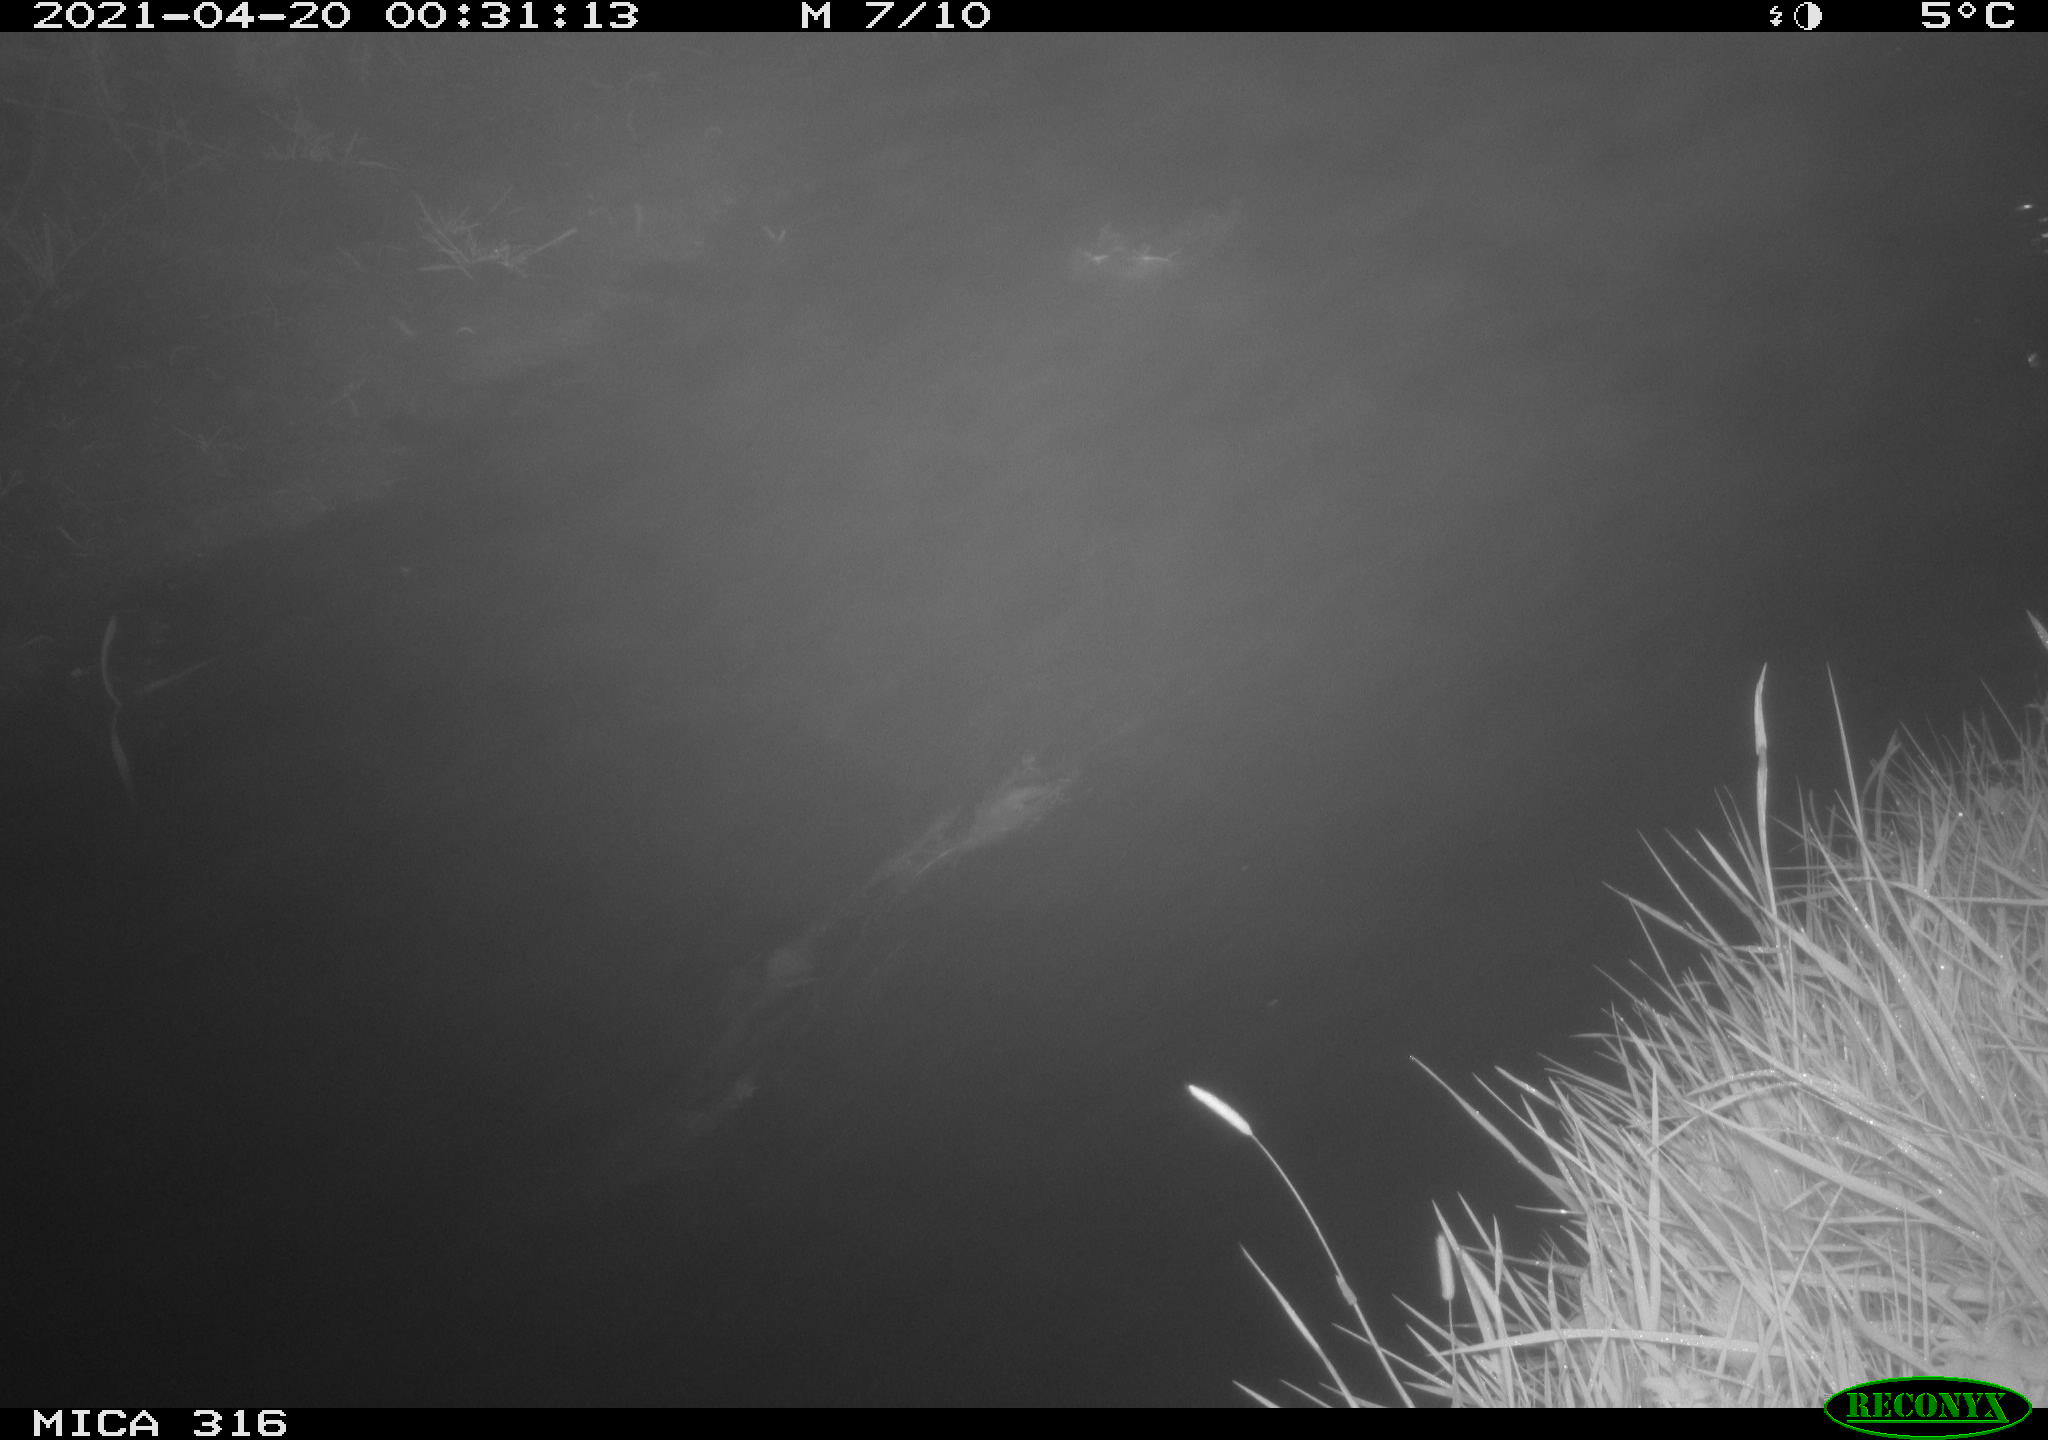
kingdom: Animalia
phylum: Chordata
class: Aves
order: Anseriformes
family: Anatidae
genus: Anas
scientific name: Anas platyrhynchos
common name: Mallard
